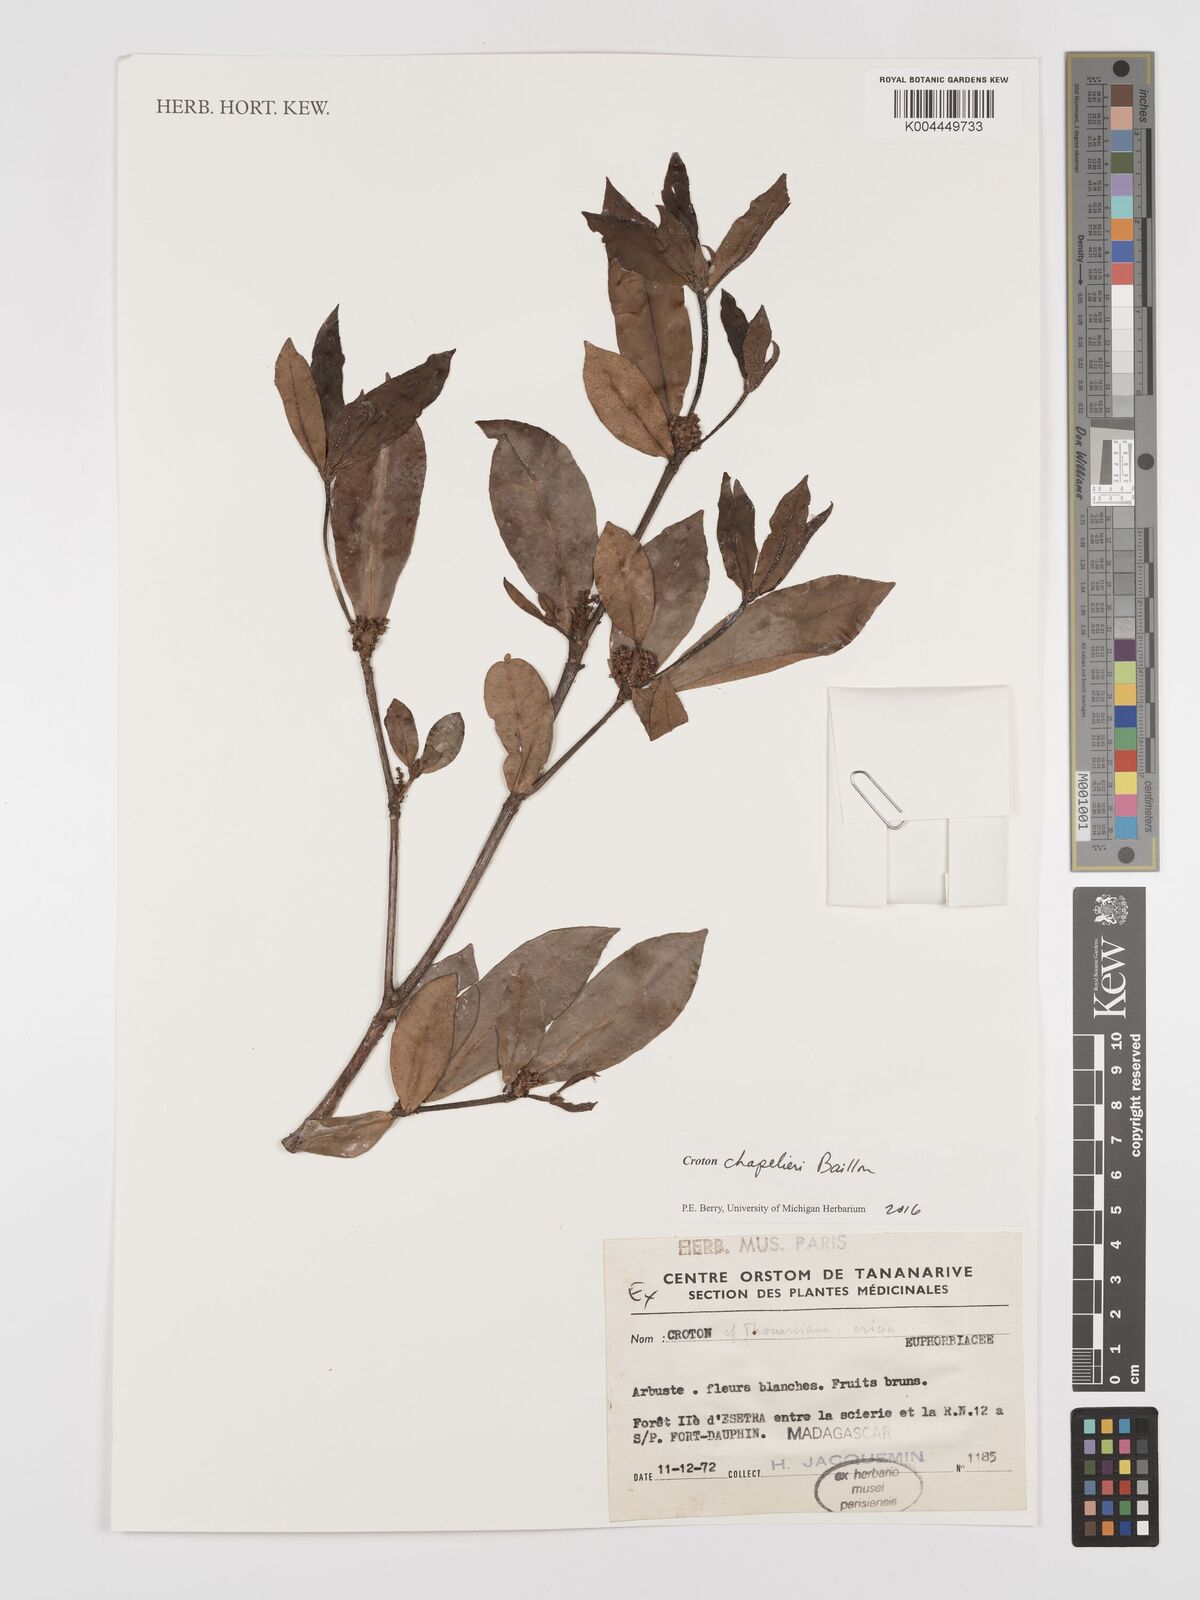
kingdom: Plantae
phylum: Tracheophyta
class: Magnoliopsida
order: Malpighiales
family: Euphorbiaceae
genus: Croton
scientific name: Croton chapelieri
